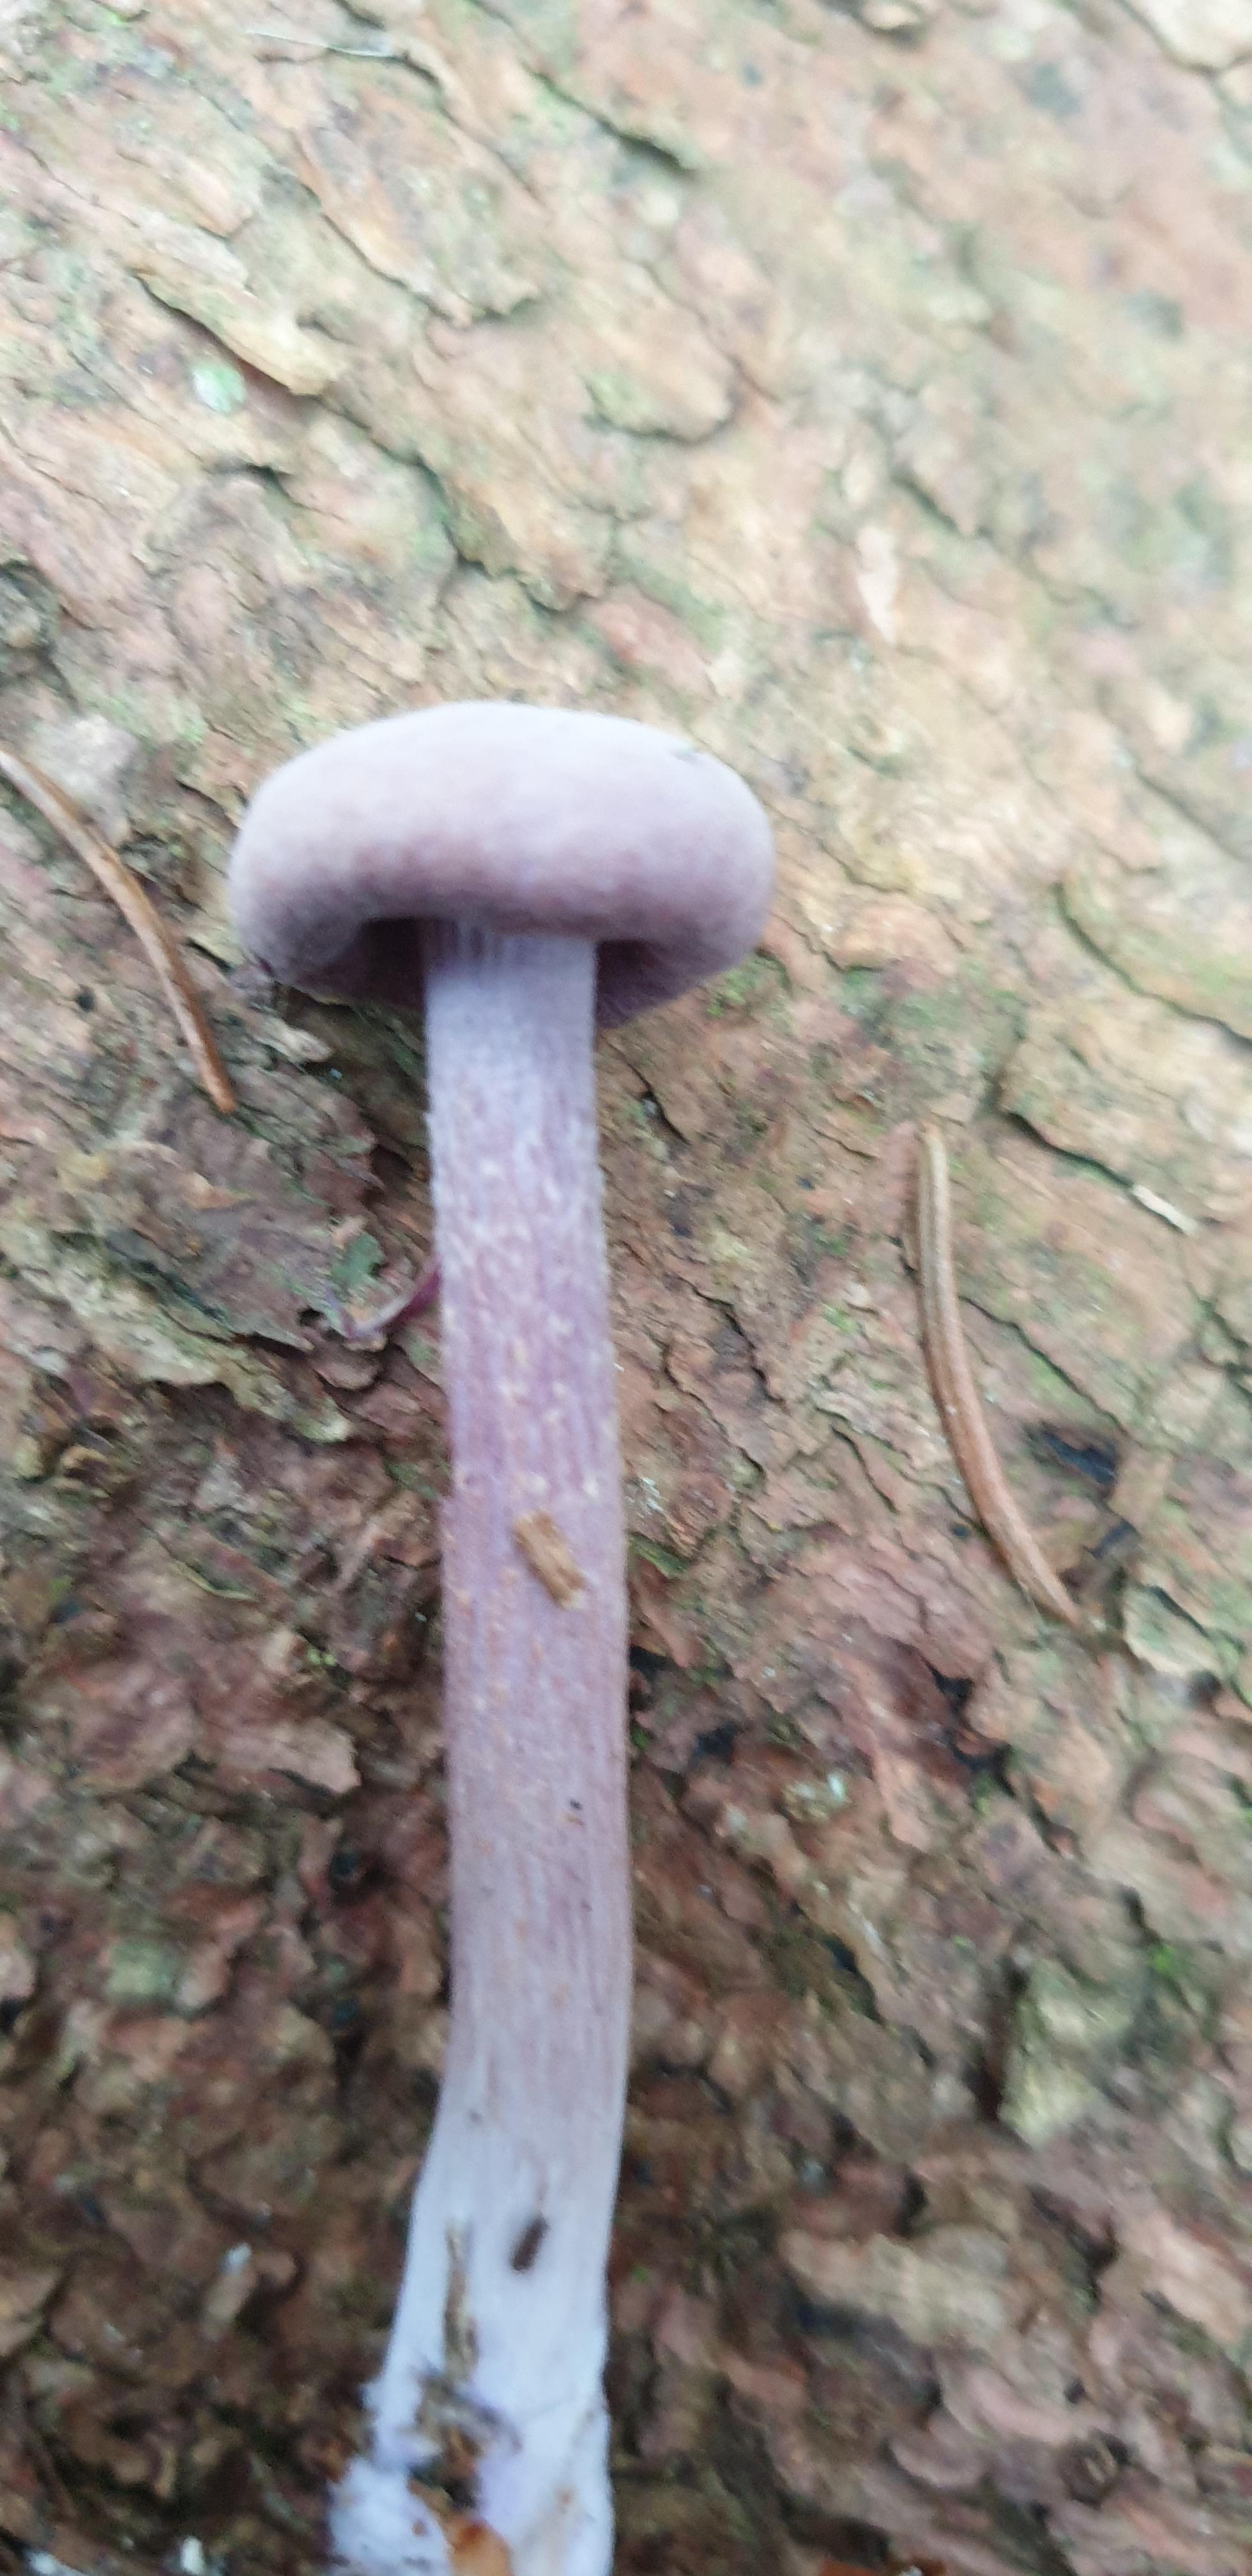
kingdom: Fungi
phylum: Basidiomycota
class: Agaricomycetes
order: Agaricales
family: Hydnangiaceae
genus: Laccaria
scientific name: Laccaria amethystina
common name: violet ametysthat
